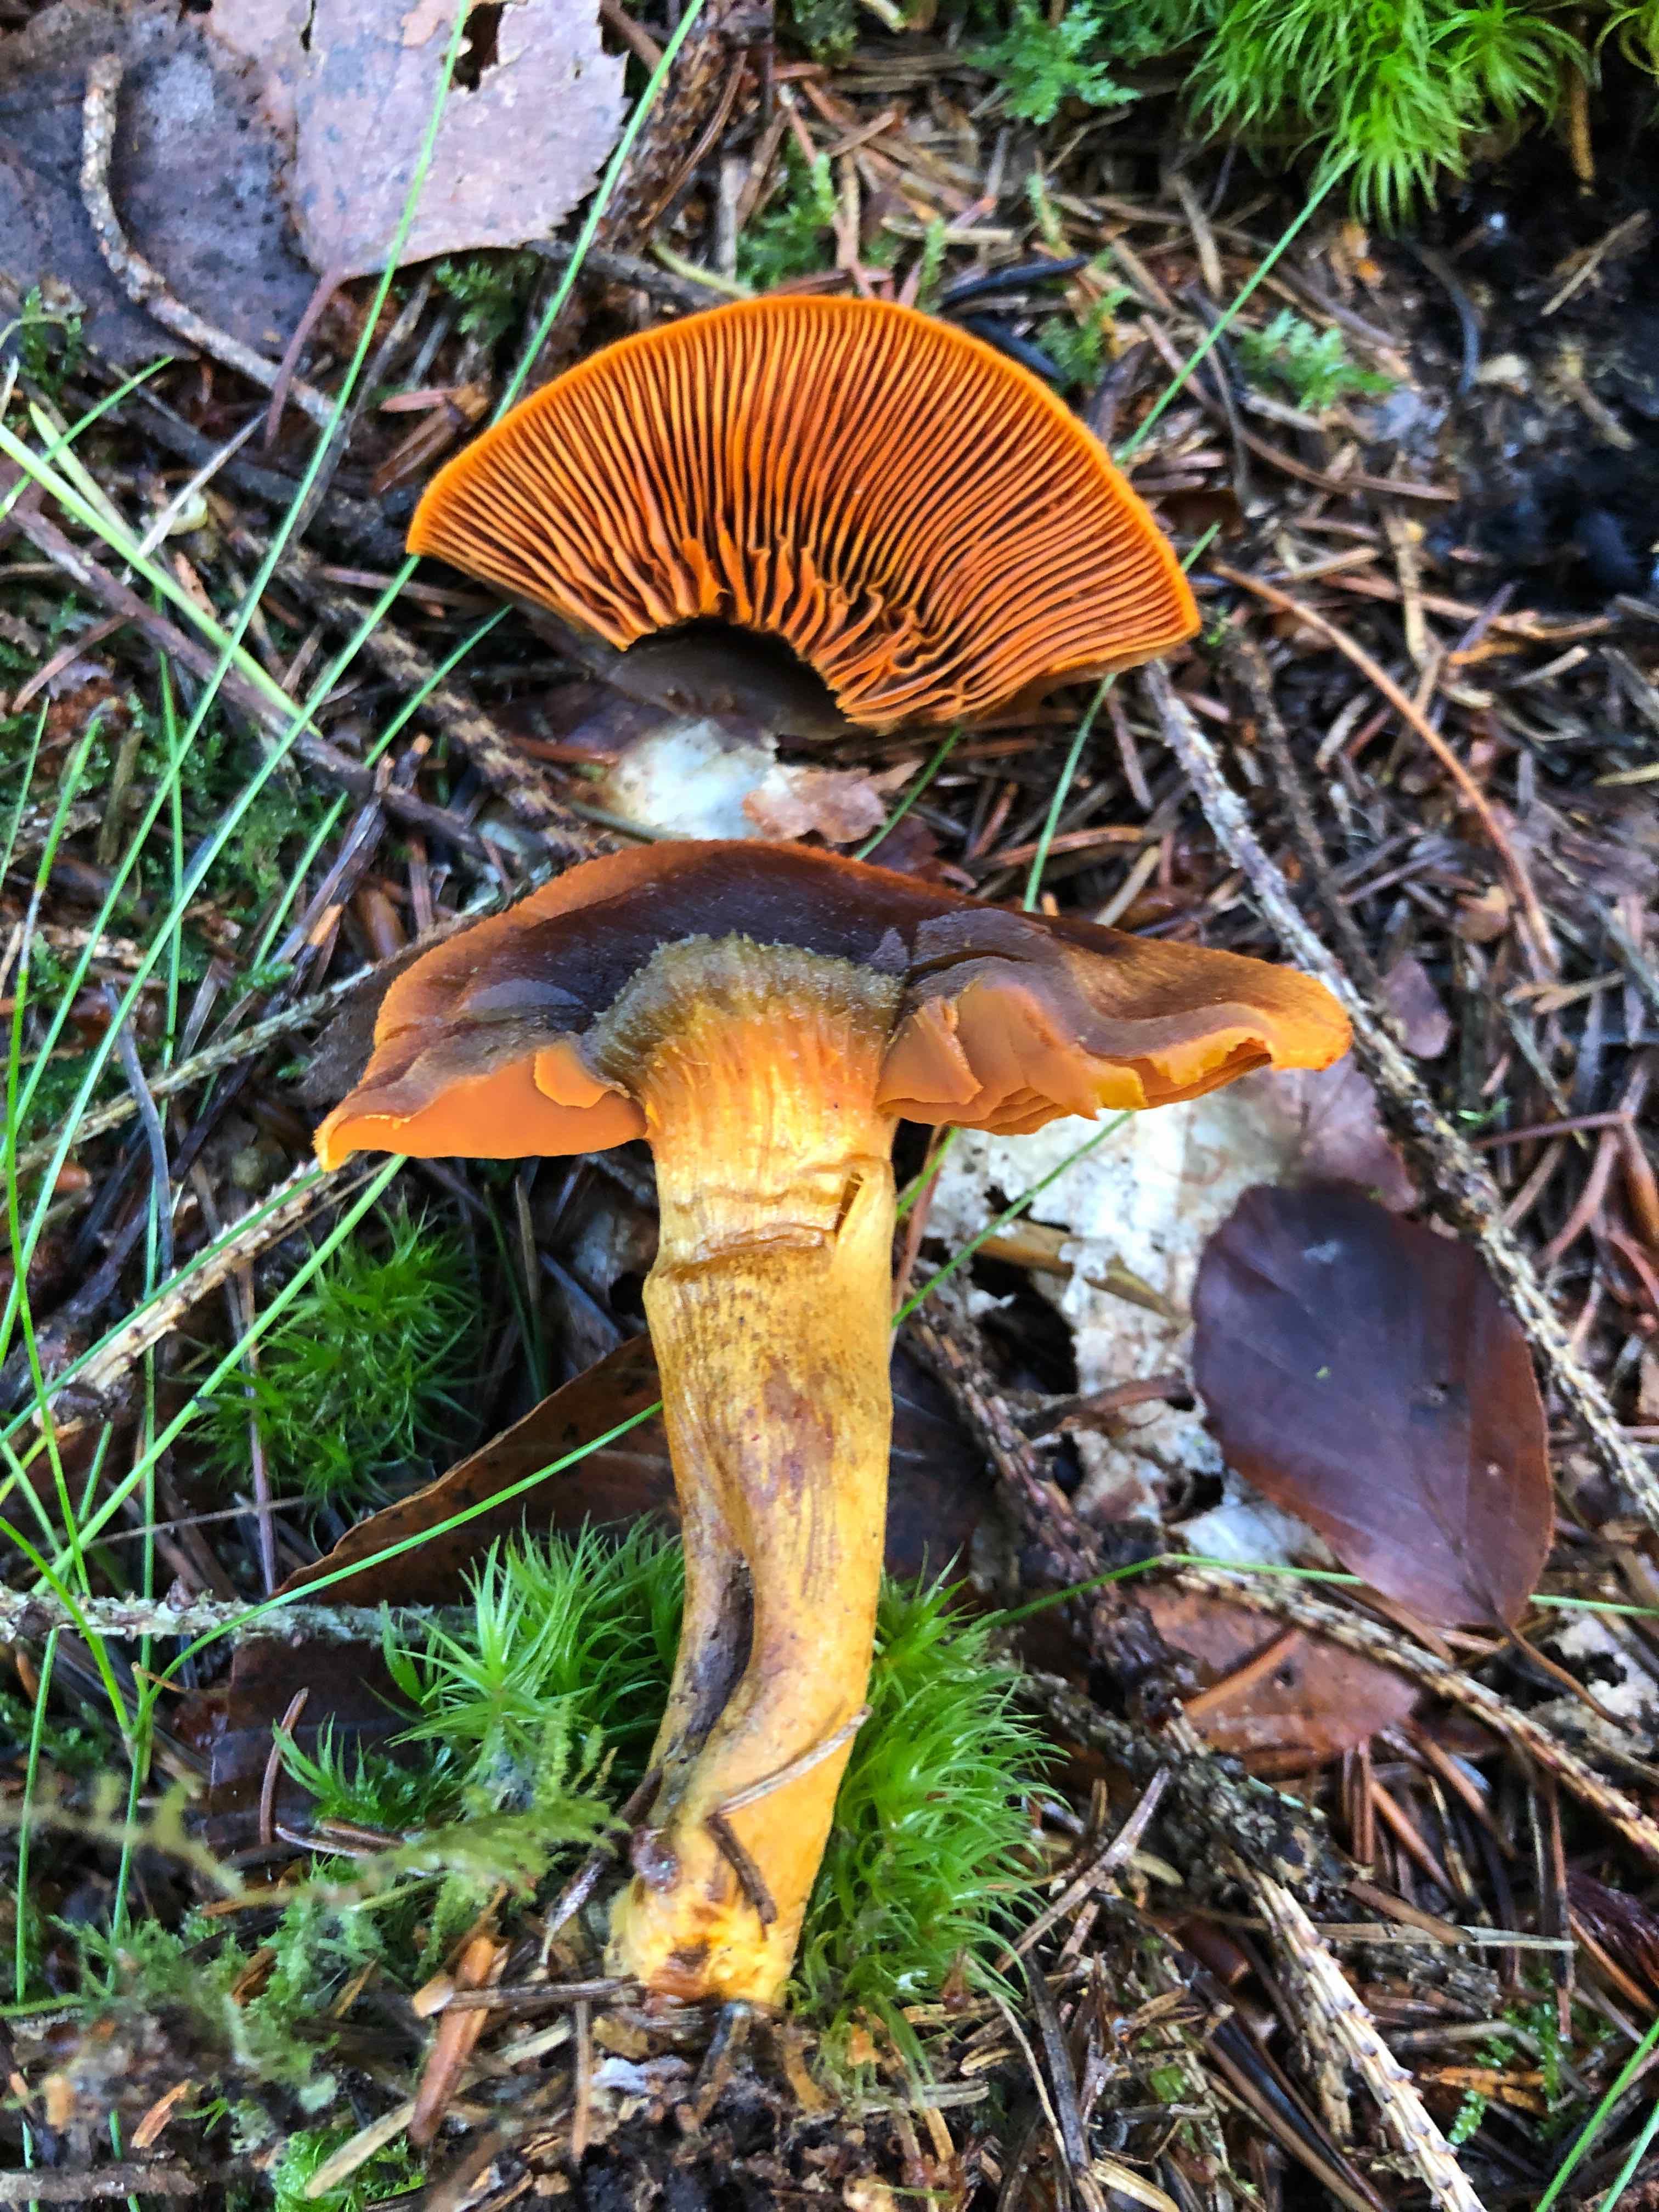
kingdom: Fungi
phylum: Basidiomycota
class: Agaricomycetes
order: Agaricales
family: Cortinariaceae
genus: Cortinarius
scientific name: Cortinarius malicorius
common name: grønkødet slørhat
